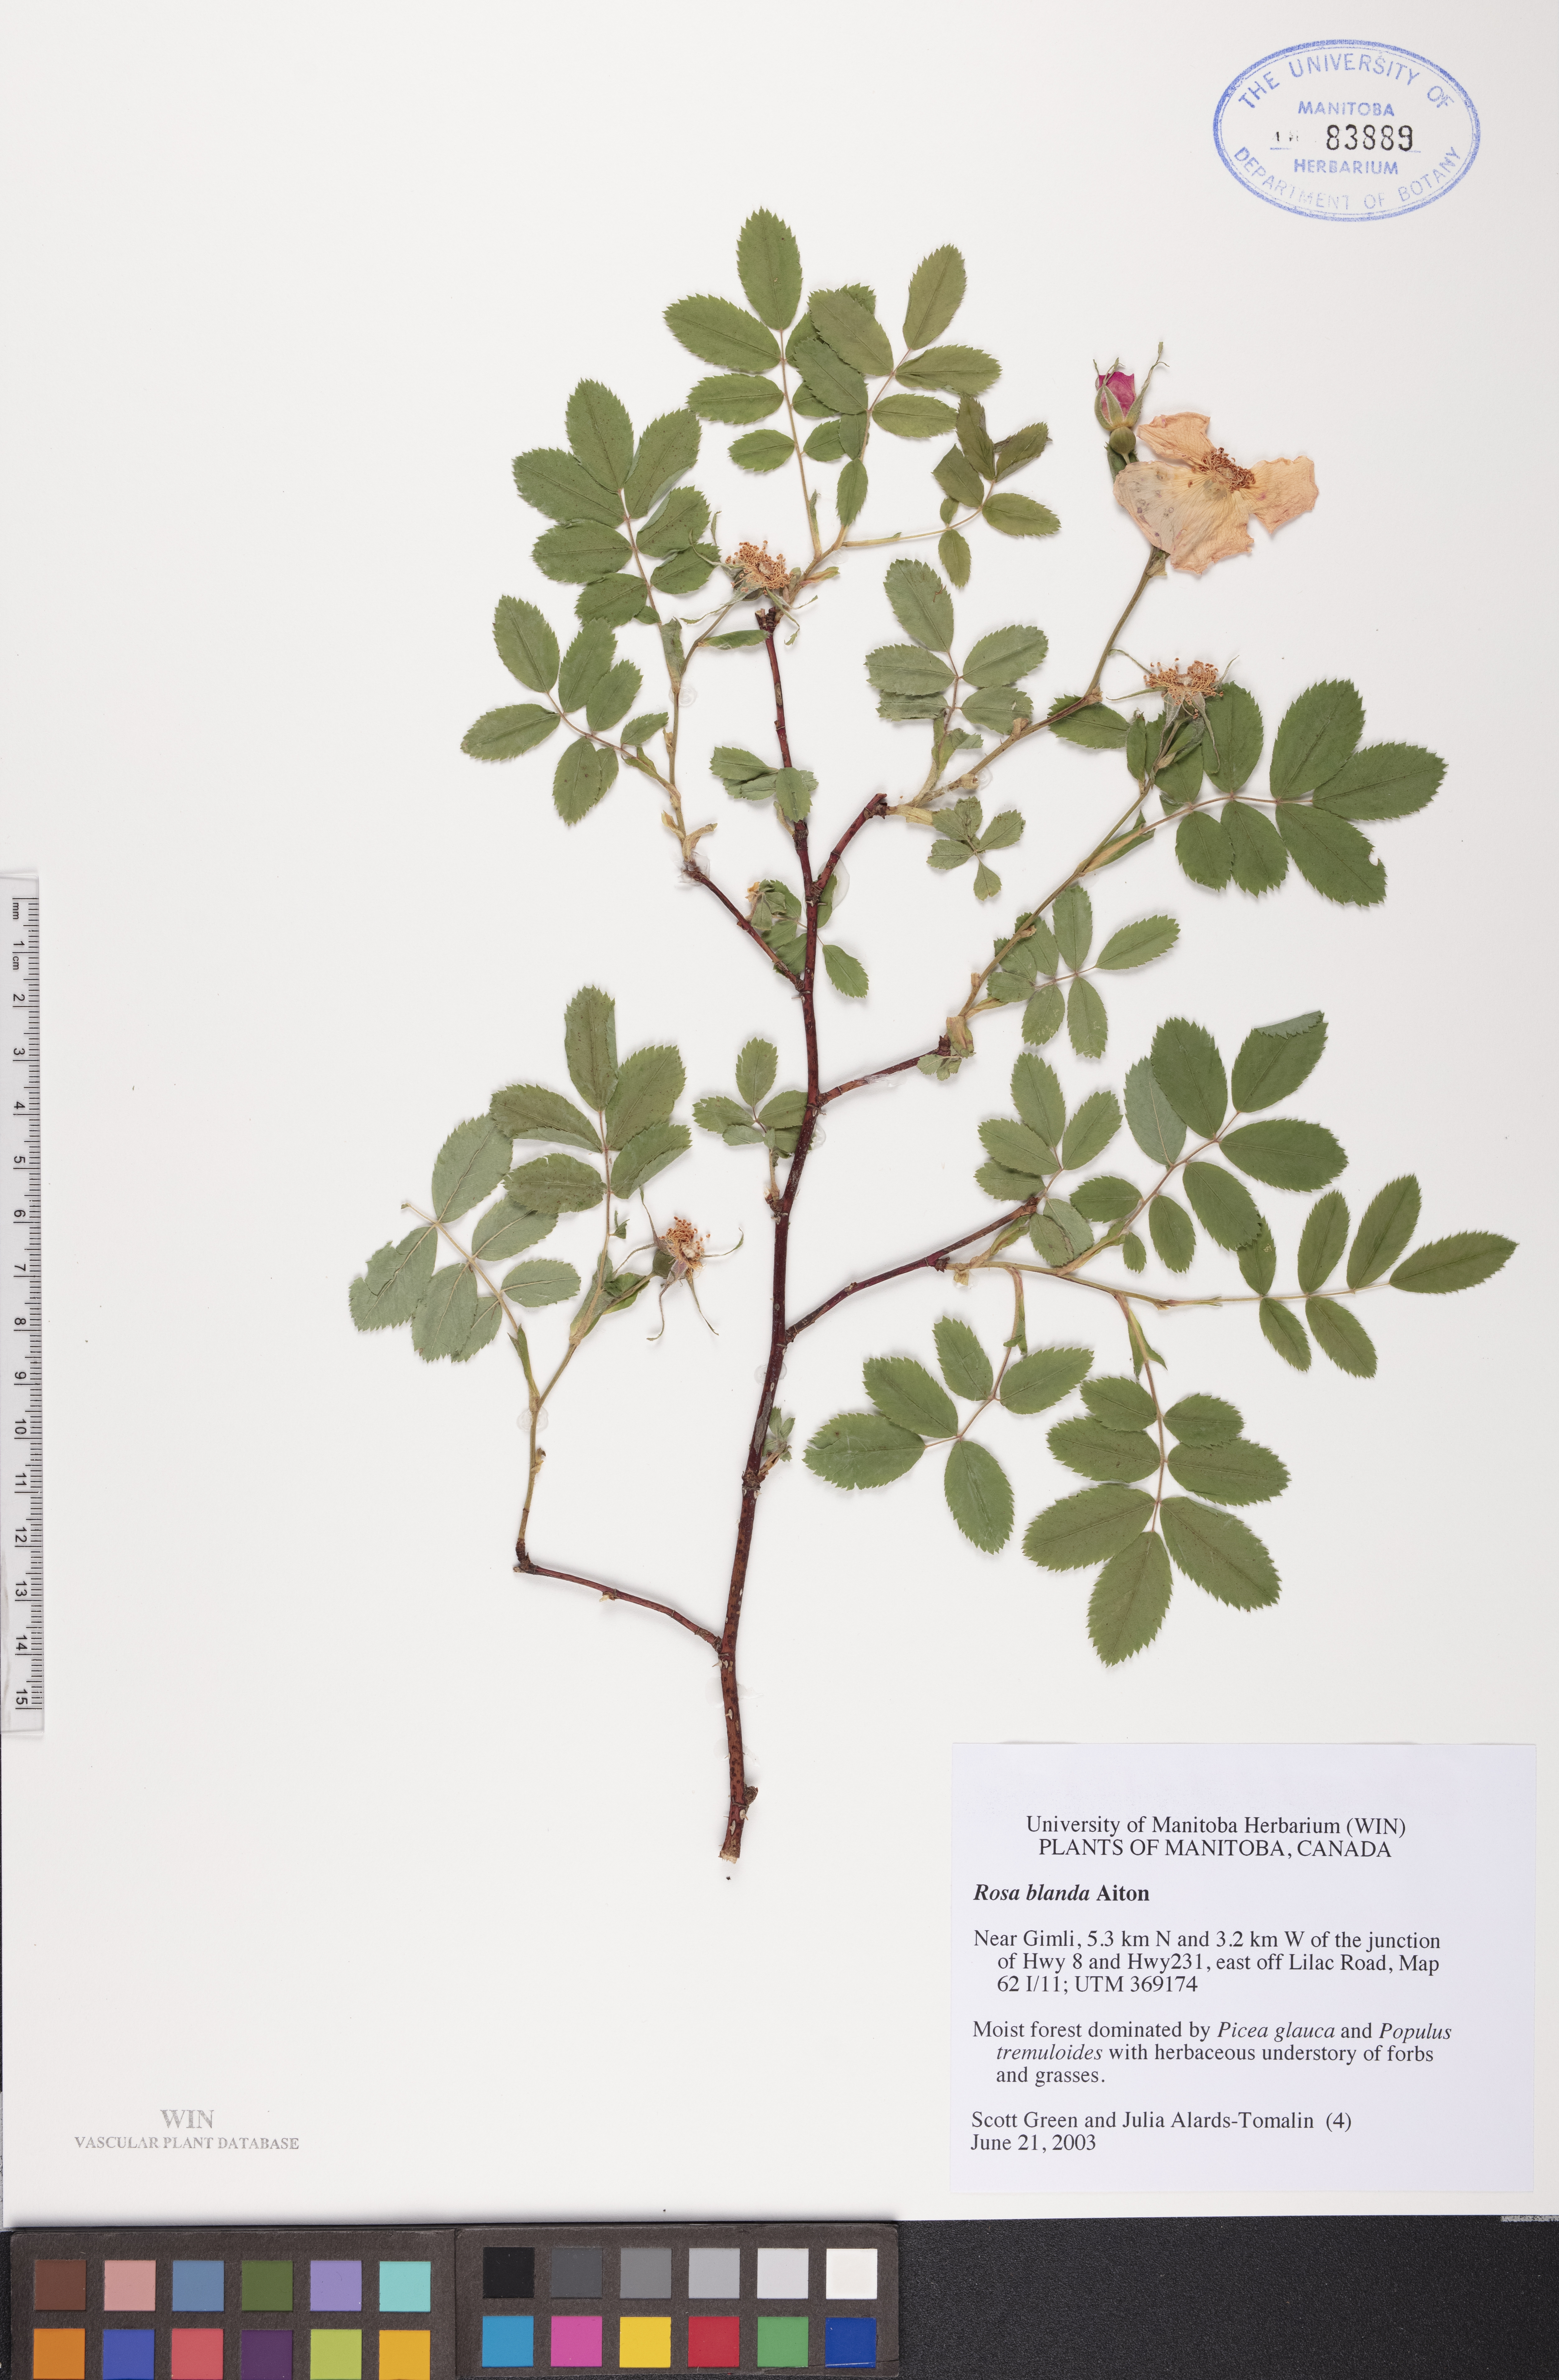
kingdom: Plantae
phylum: Tracheophyta
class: Magnoliopsida
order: Rosales
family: Rosaceae
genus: Rosa
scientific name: Rosa blanda
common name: Smooth rose
